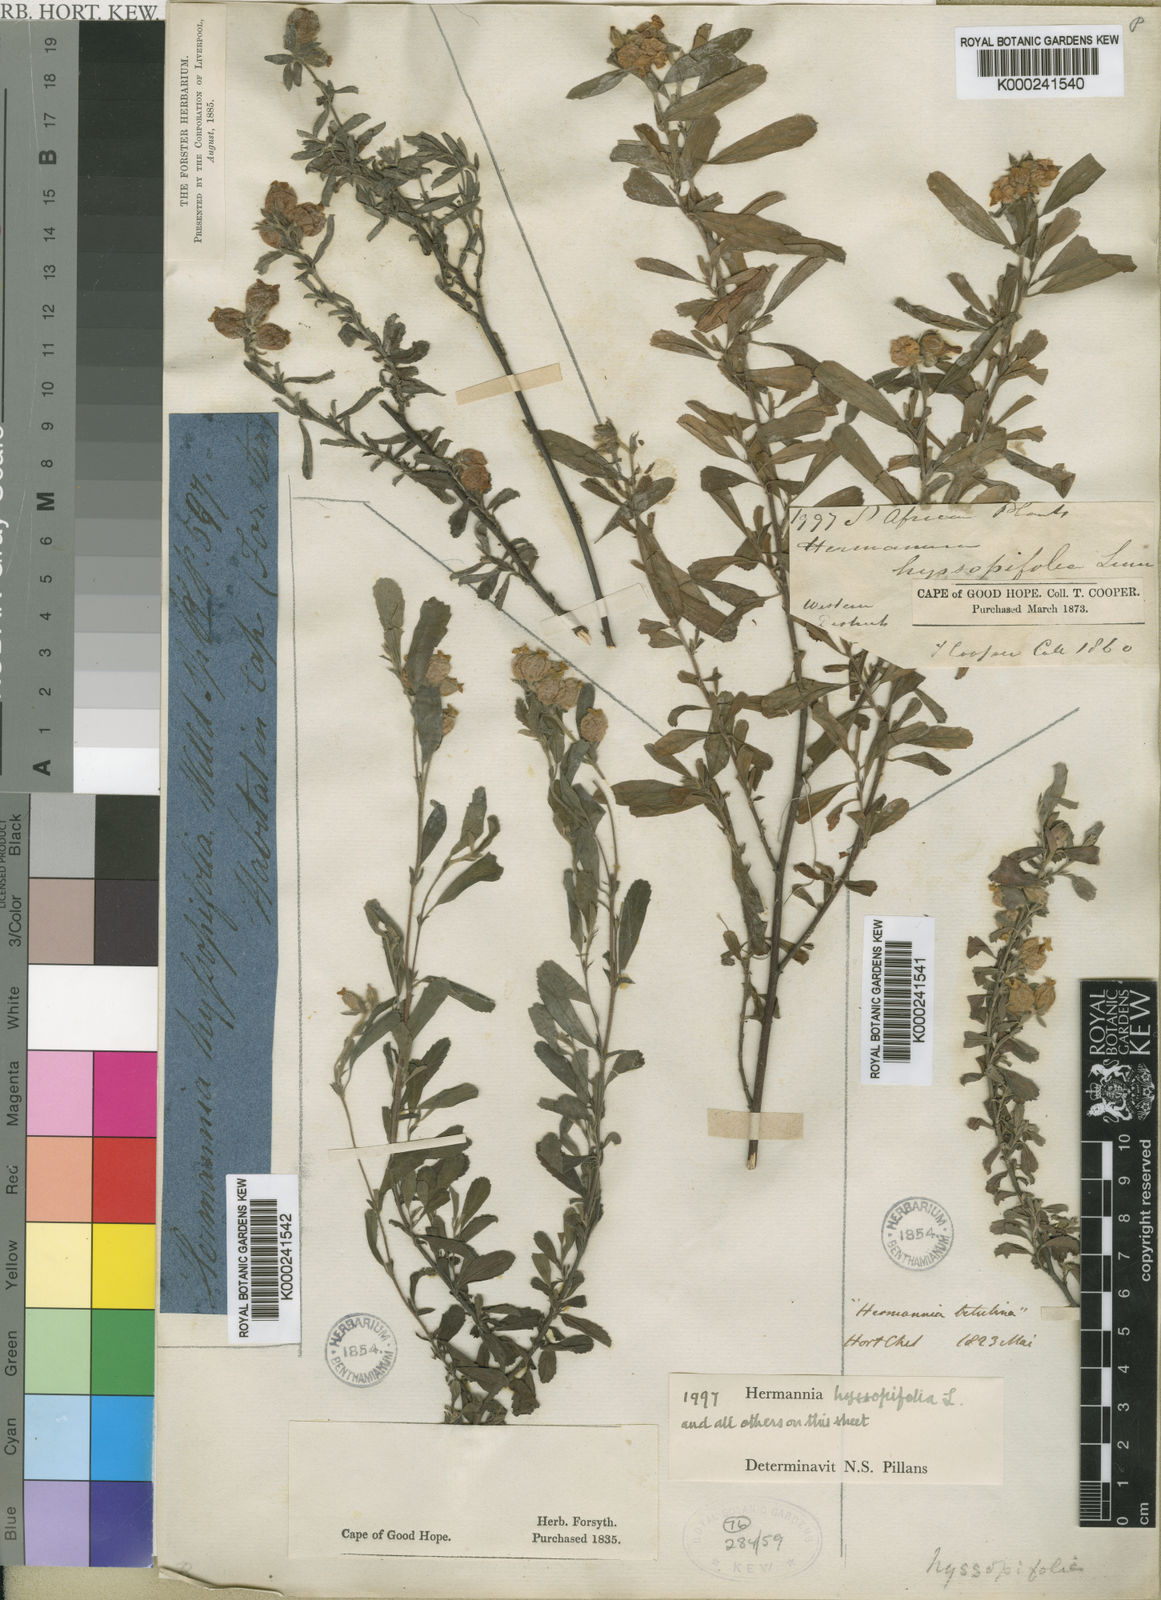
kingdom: Plantae
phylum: Tracheophyta
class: Magnoliopsida
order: Malvales
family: Malvaceae
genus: Hermannia
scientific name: Hermannia hyssopifolia
